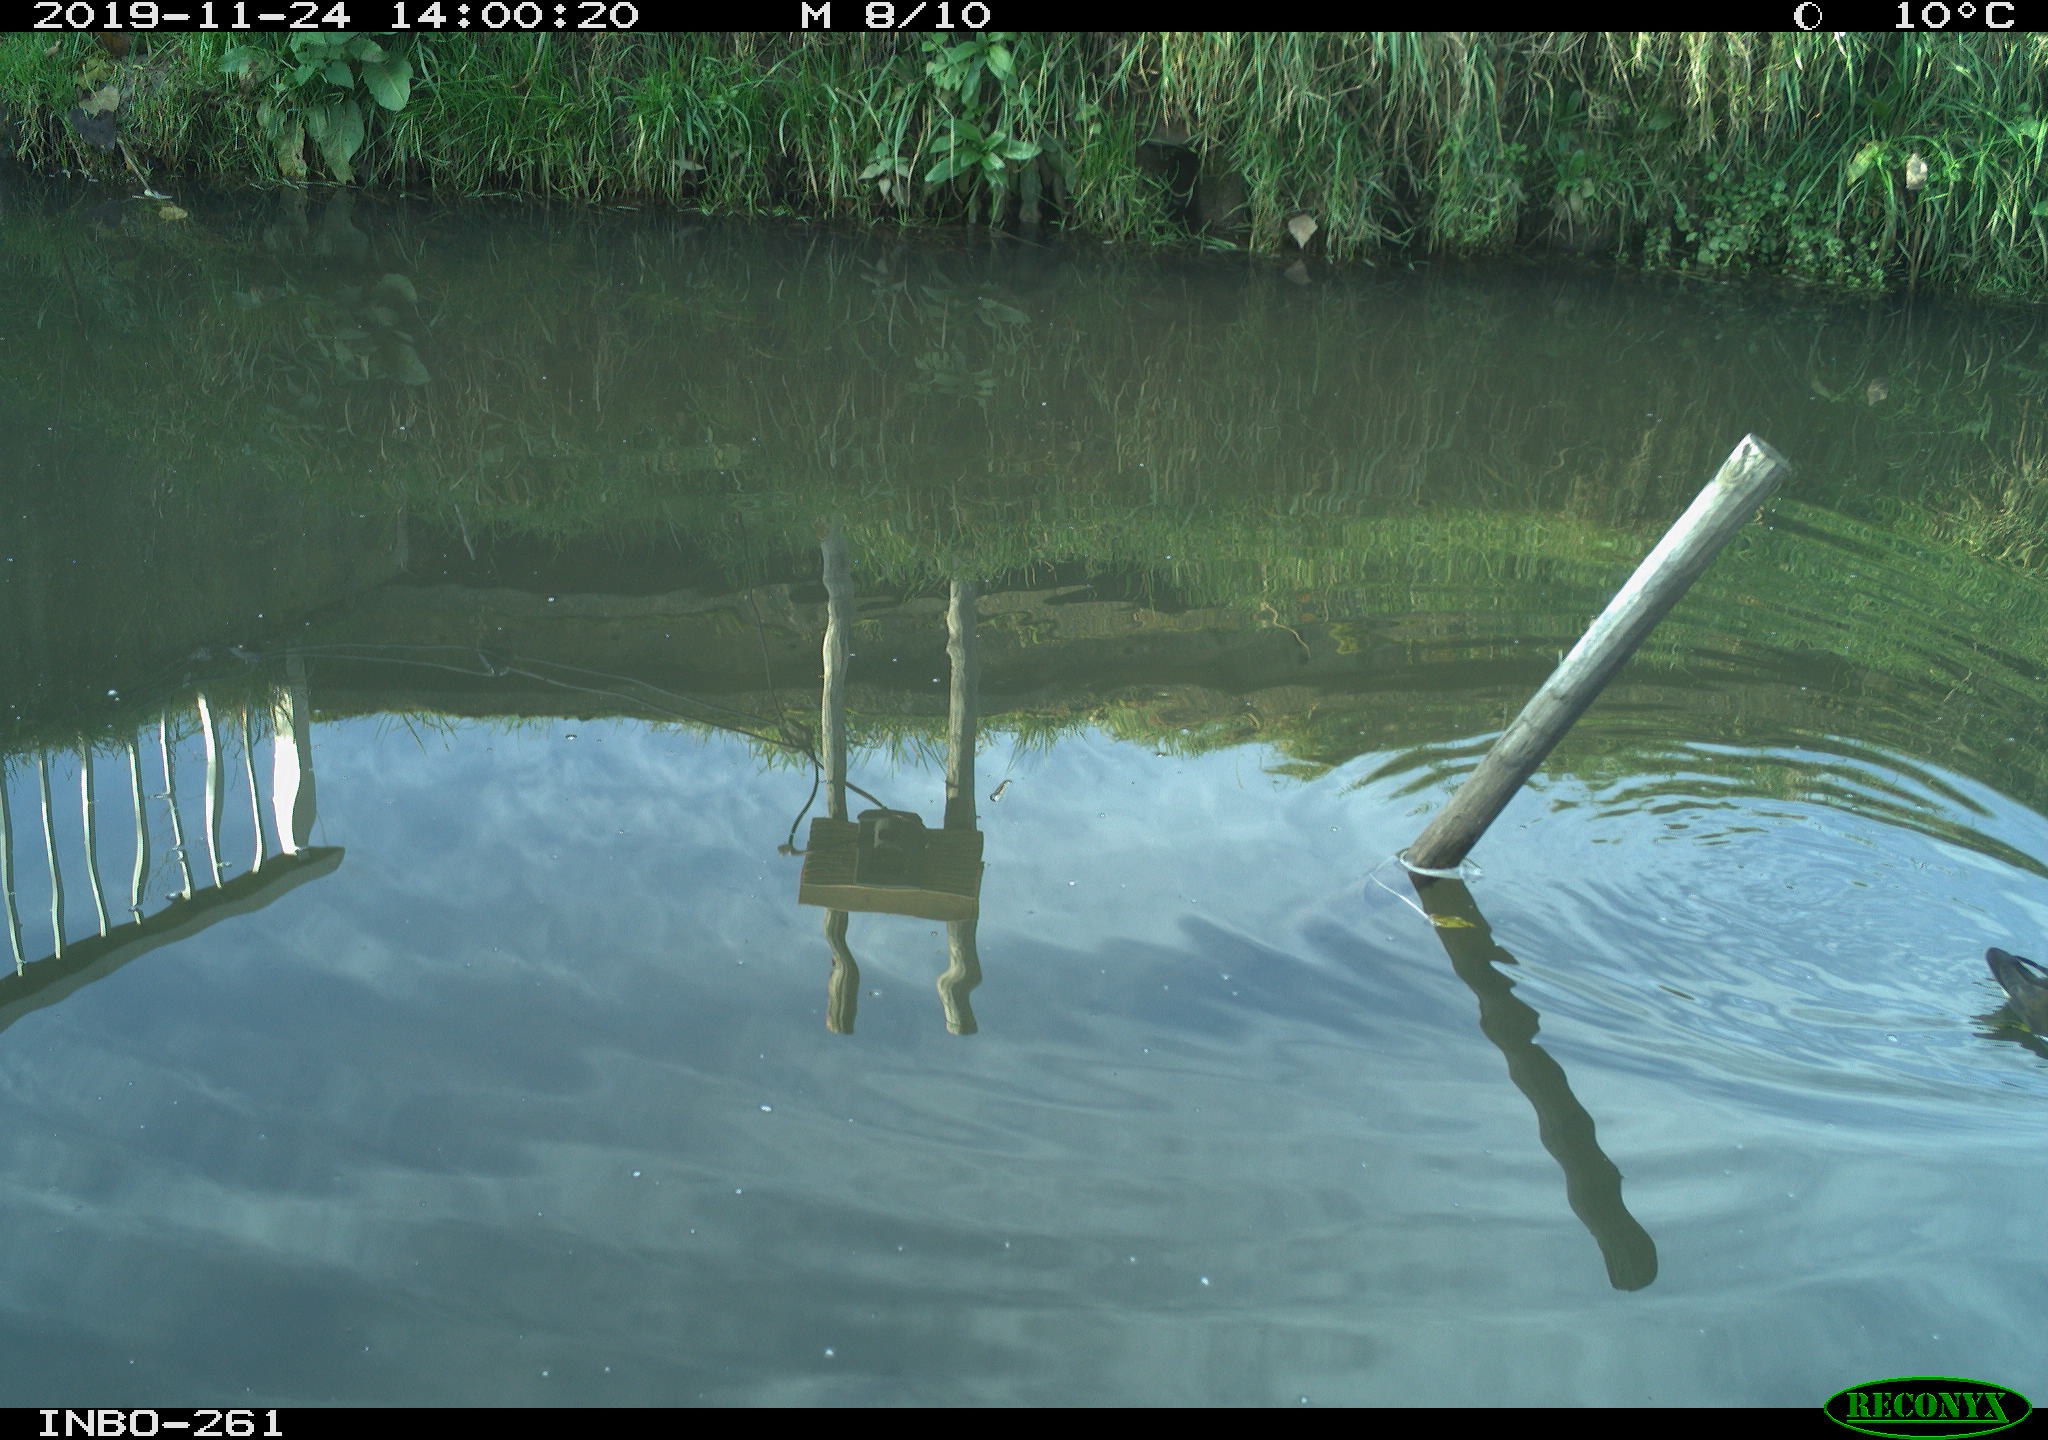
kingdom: Animalia
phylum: Chordata
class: Aves
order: Gruiformes
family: Rallidae
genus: Gallinula
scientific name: Gallinula chloropus
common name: Common moorhen
